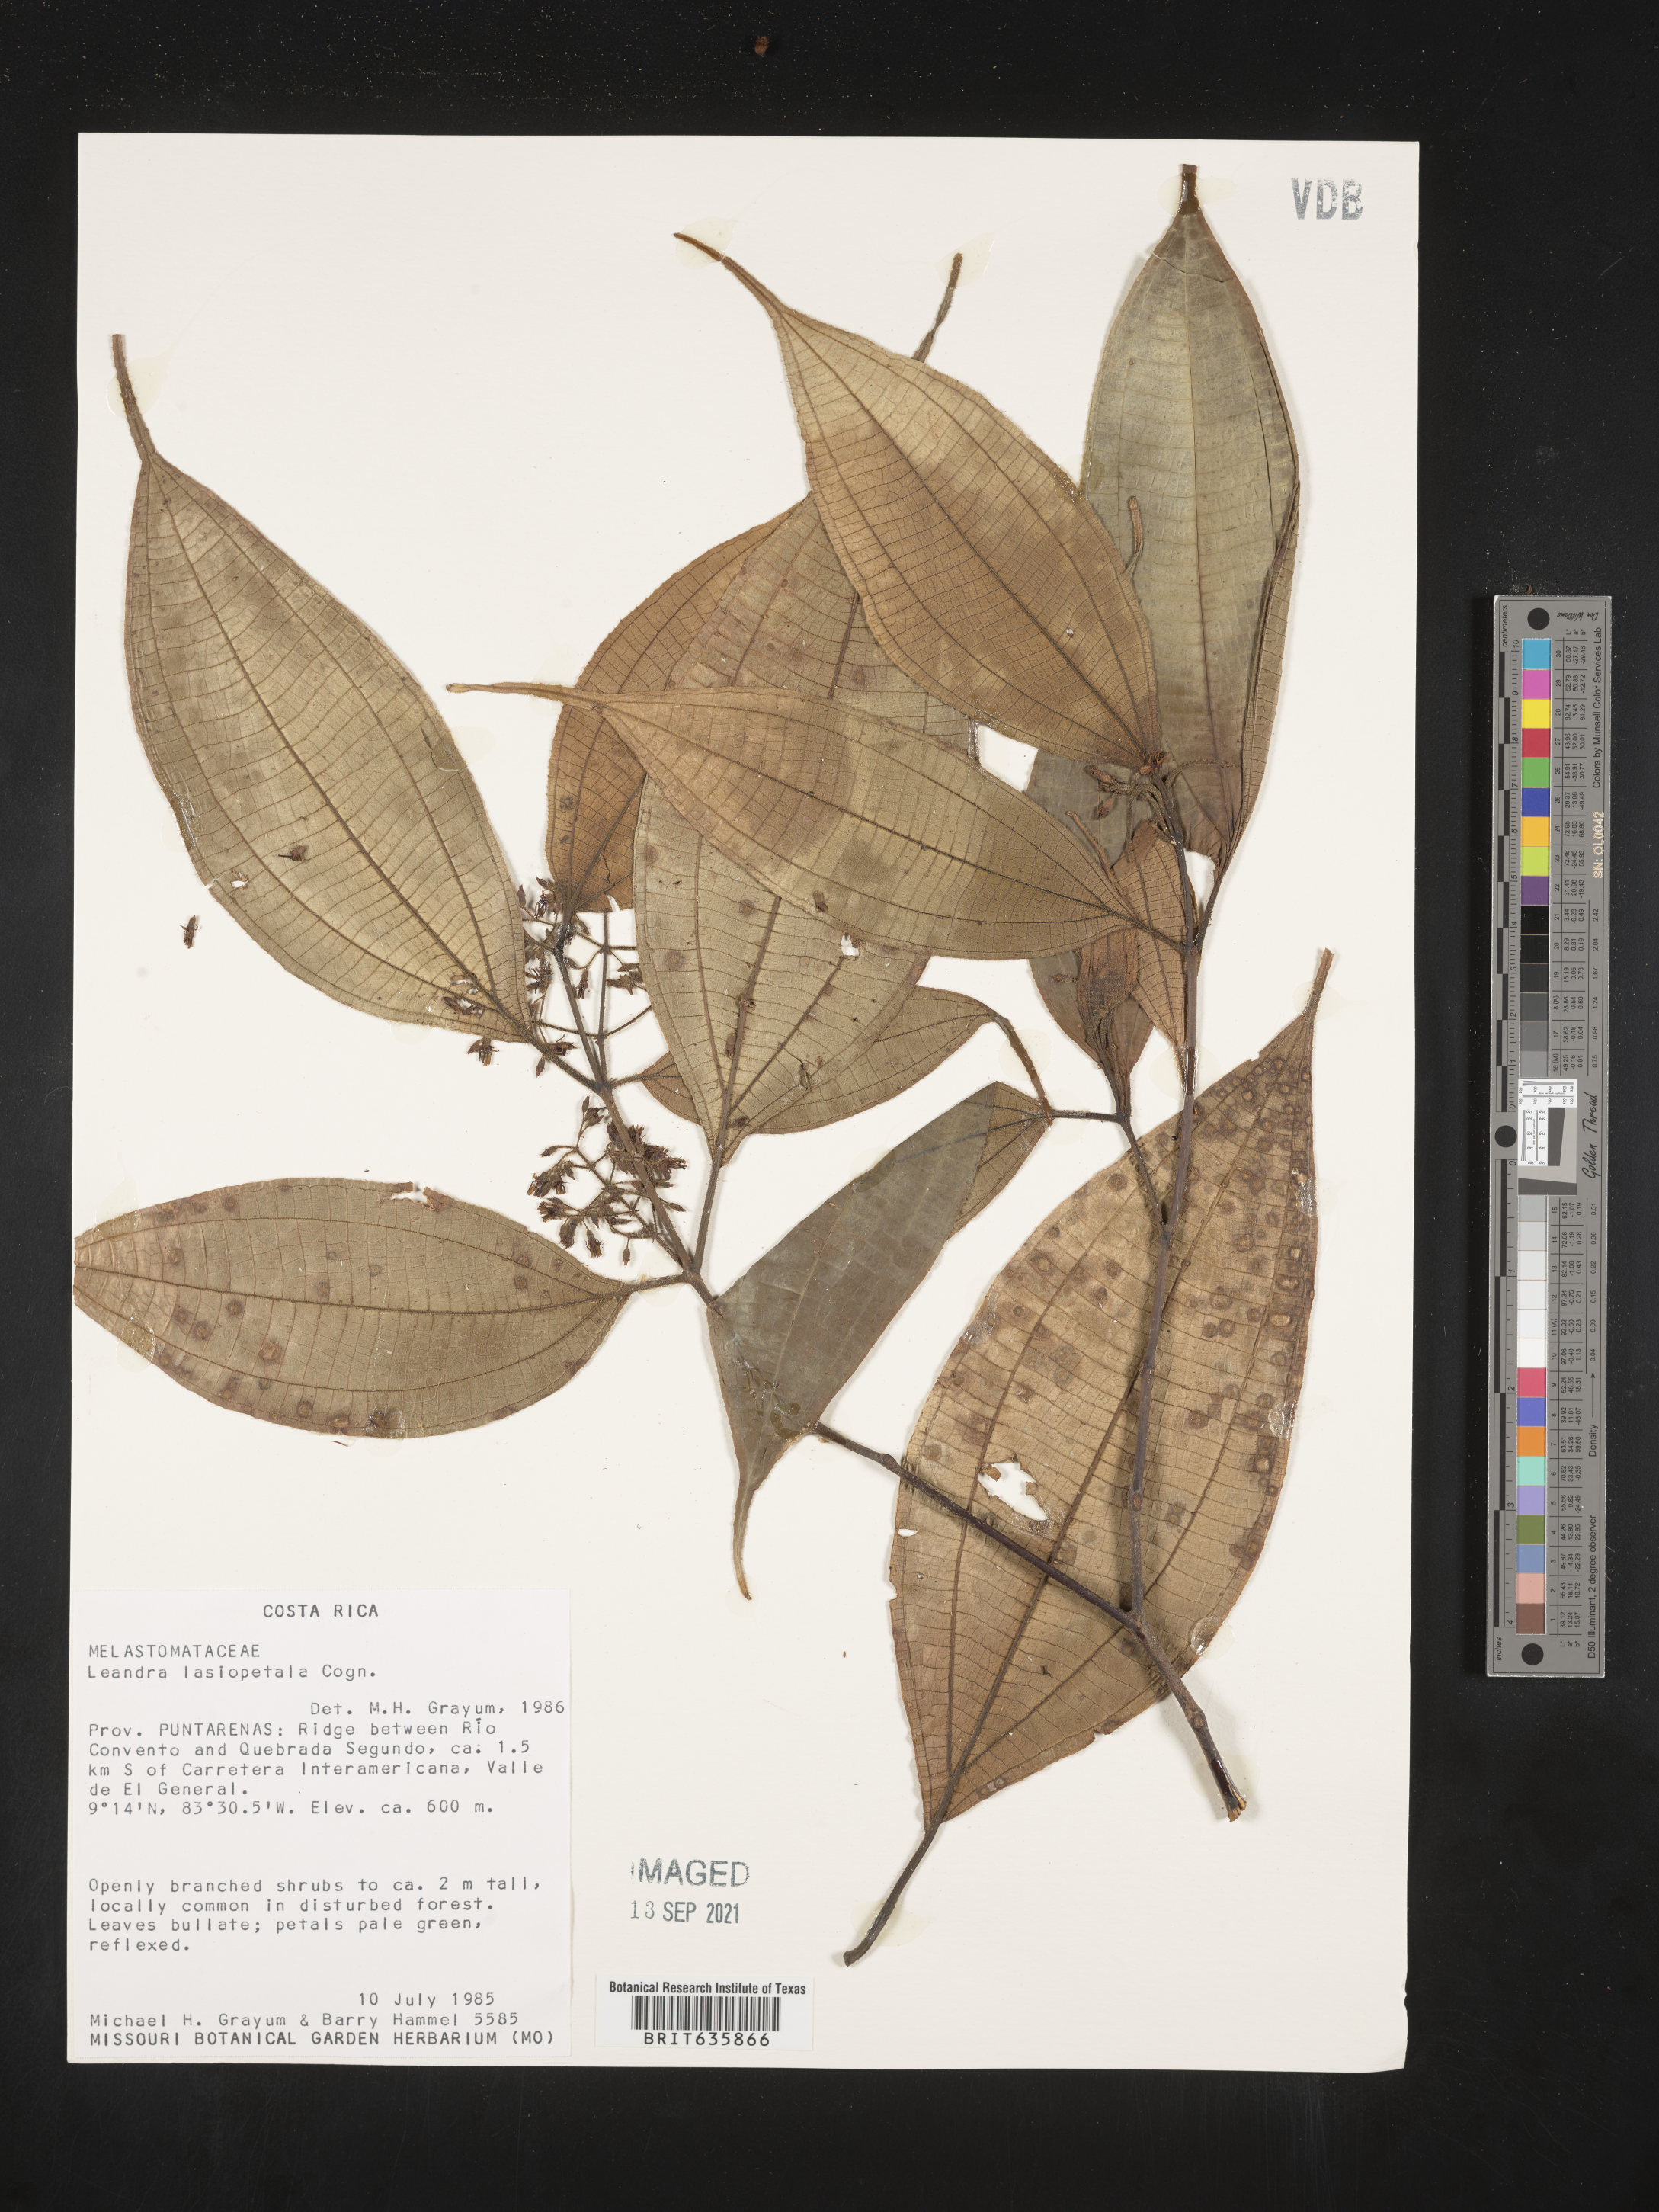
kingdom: Plantae
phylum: Tracheophyta
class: Magnoliopsida
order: Myrtales
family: Melastomataceae
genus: Miconia
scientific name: Miconia
